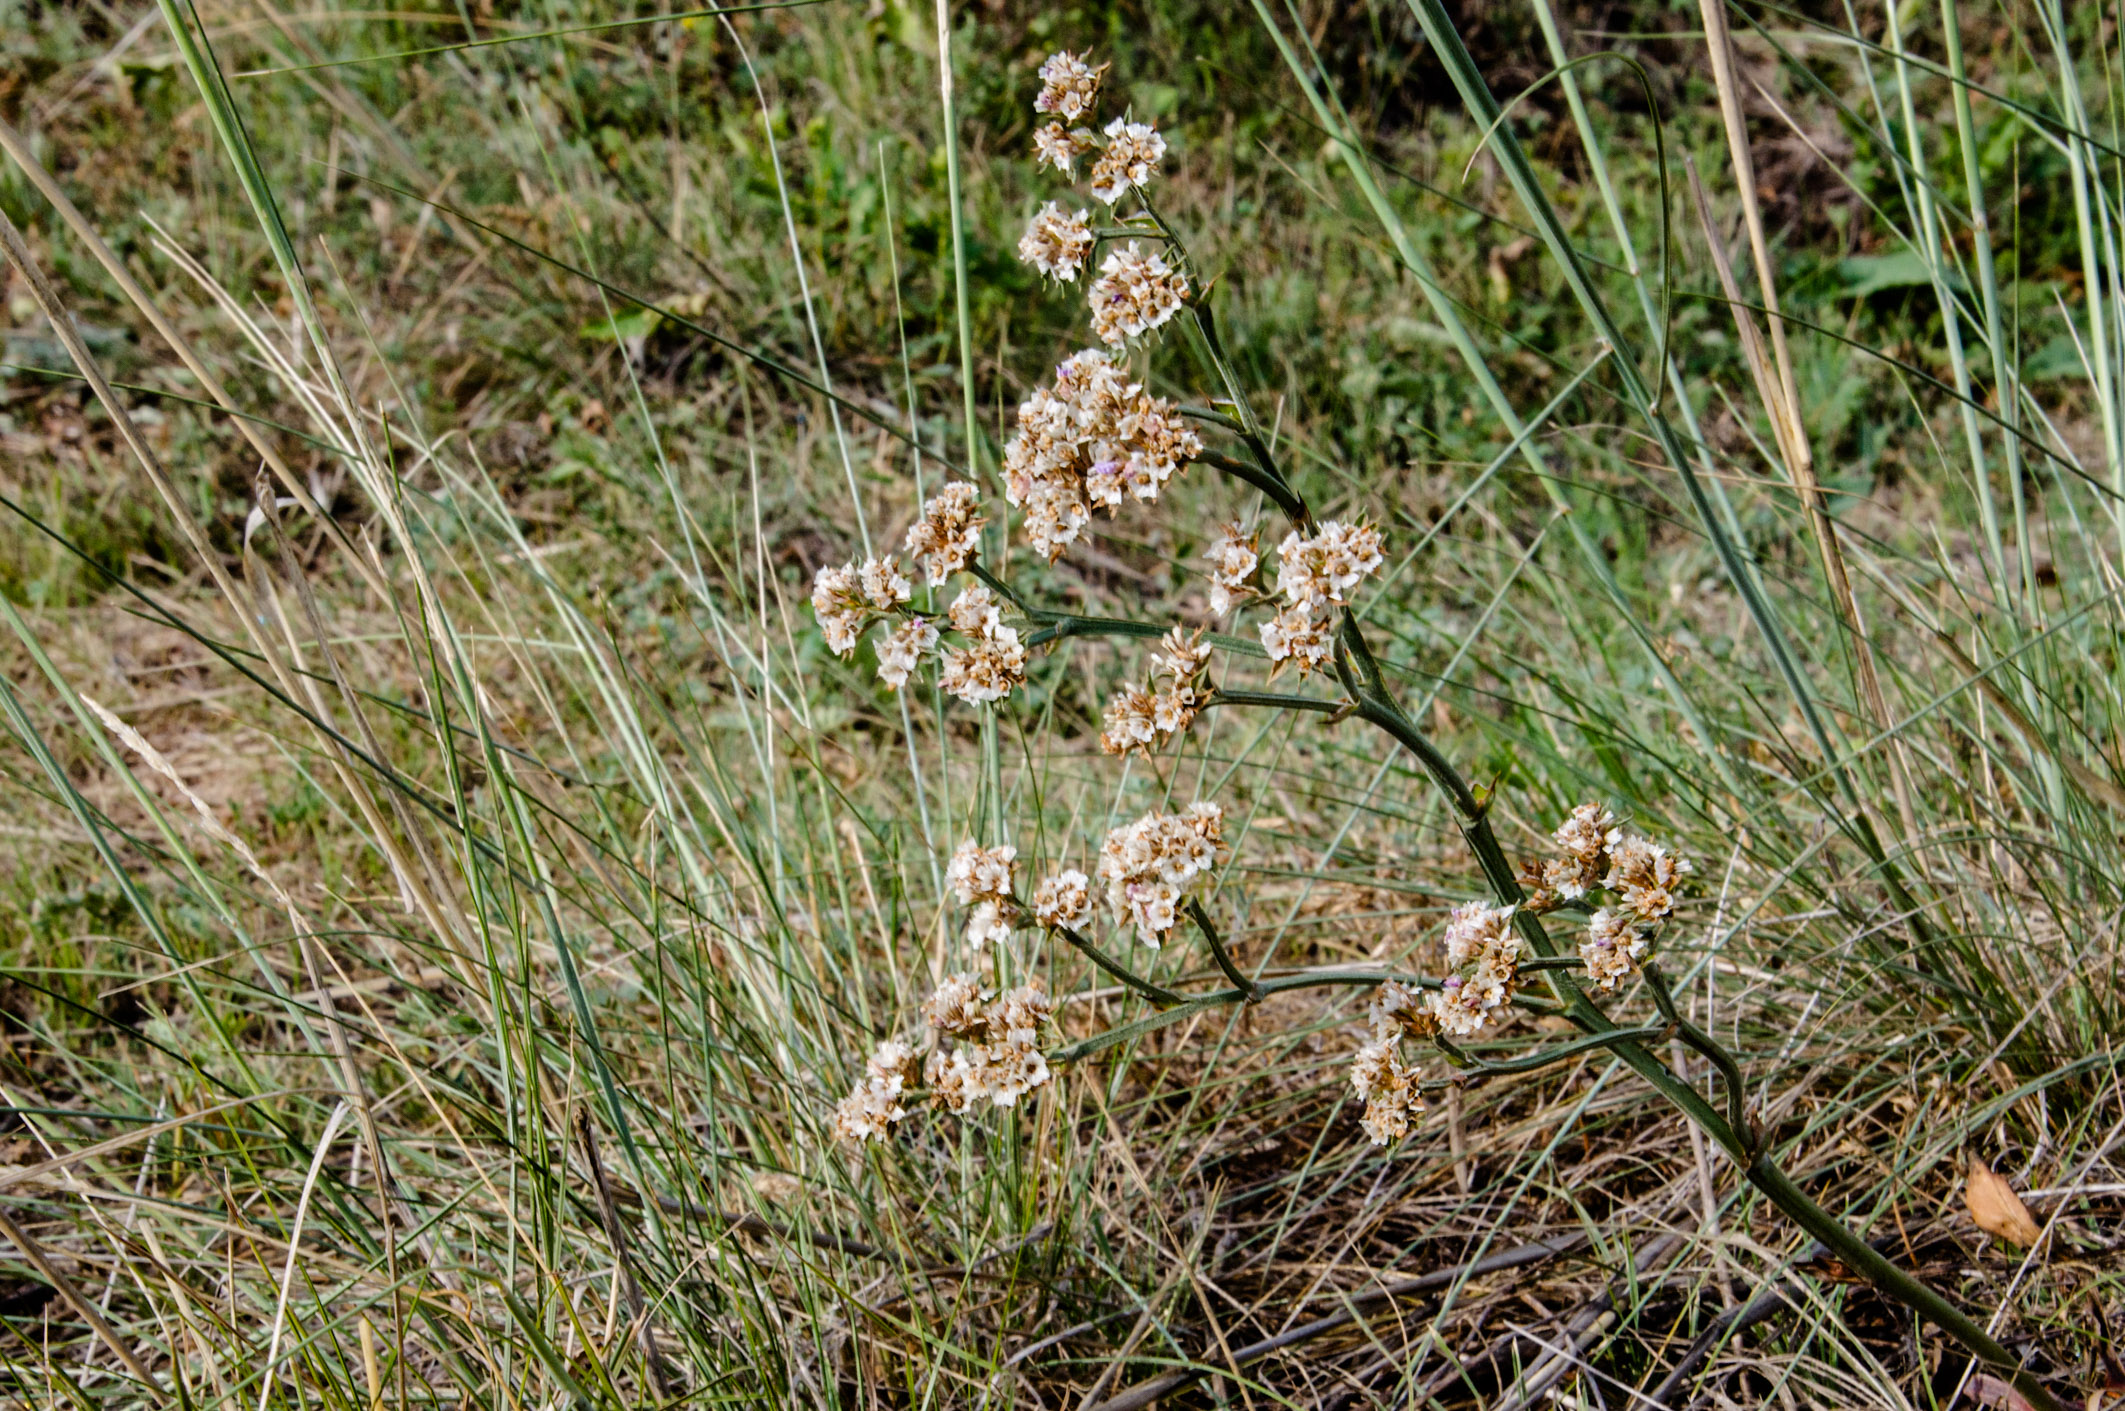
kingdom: Plantae
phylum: Tracheophyta
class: Magnoliopsida
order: Caryophyllales
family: Plumbaginaceae
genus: Goniolimon
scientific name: Goniolimon speciosum
